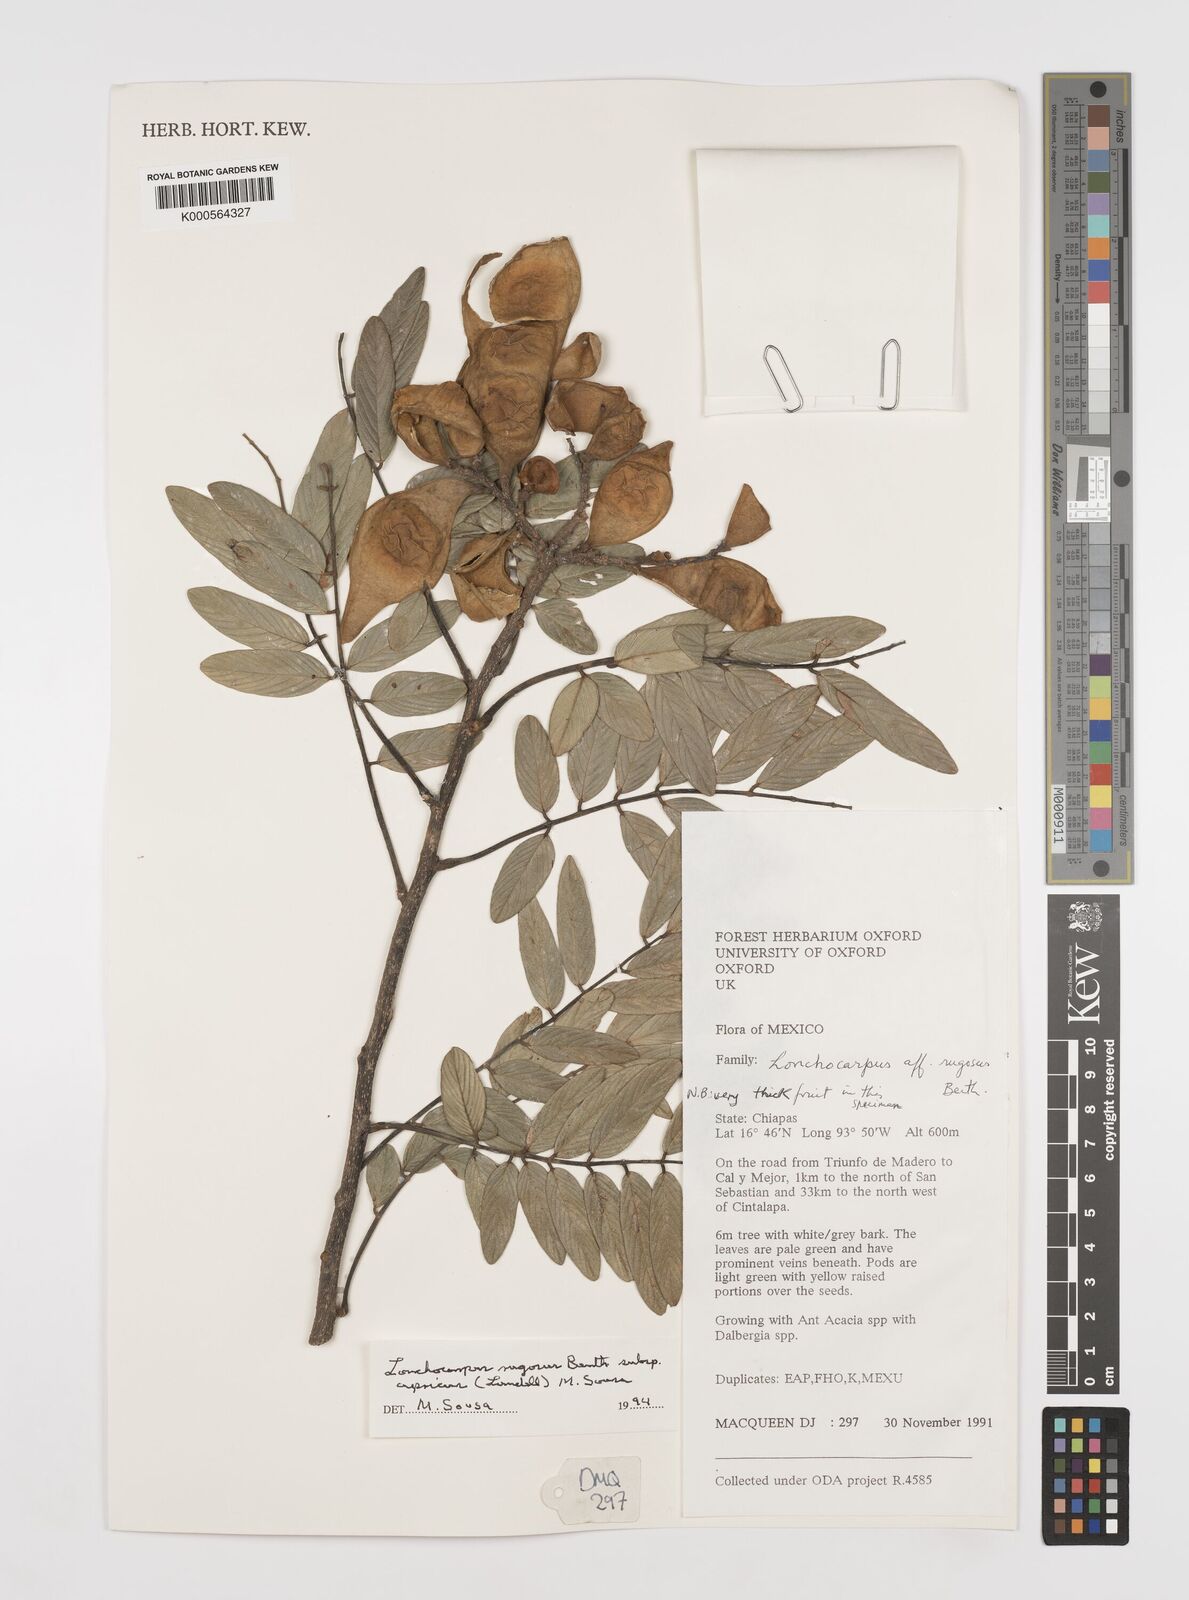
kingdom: Plantae
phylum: Tracheophyta
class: Magnoliopsida
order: Fabales
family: Fabaceae
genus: Lonchocarpus
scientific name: Lonchocarpus rugosus
